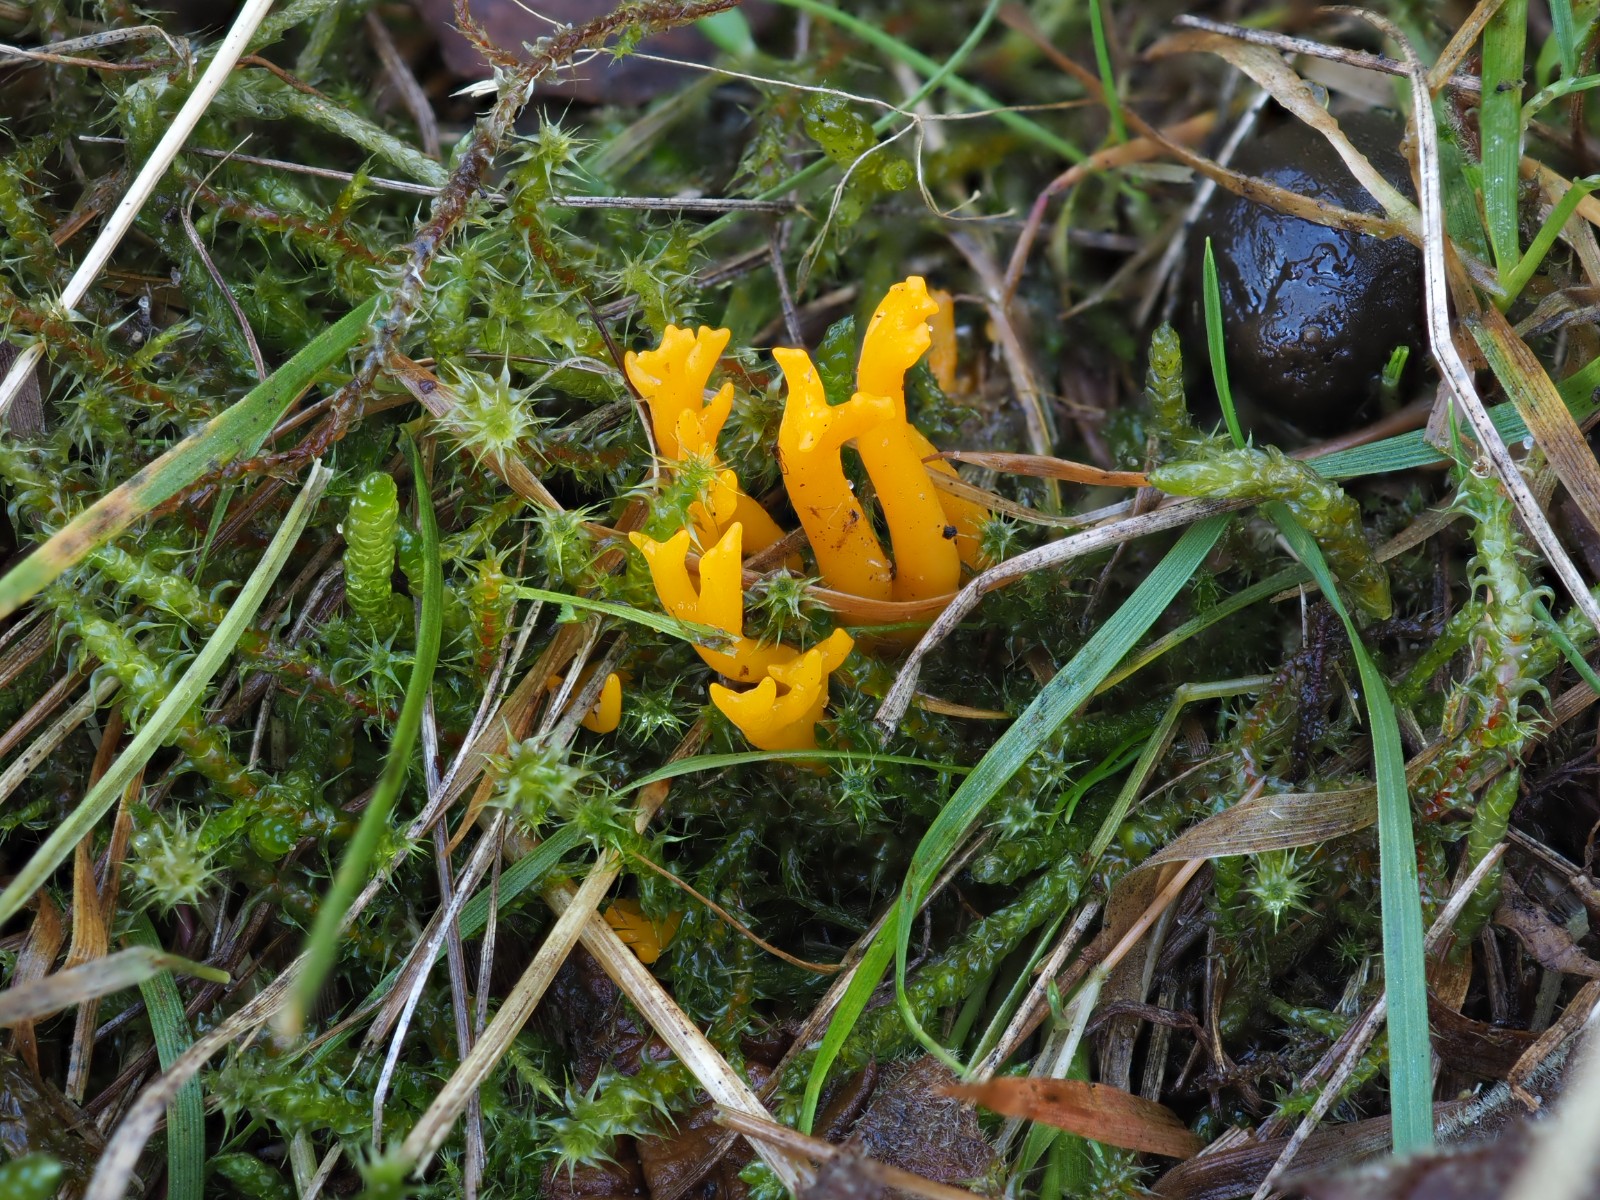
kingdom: Fungi
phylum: Basidiomycota
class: Dacrymycetes
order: Dacrymycetales
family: Dacrymycetaceae
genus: Calocera
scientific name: Calocera viscosa
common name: almindelig guldgaffel
